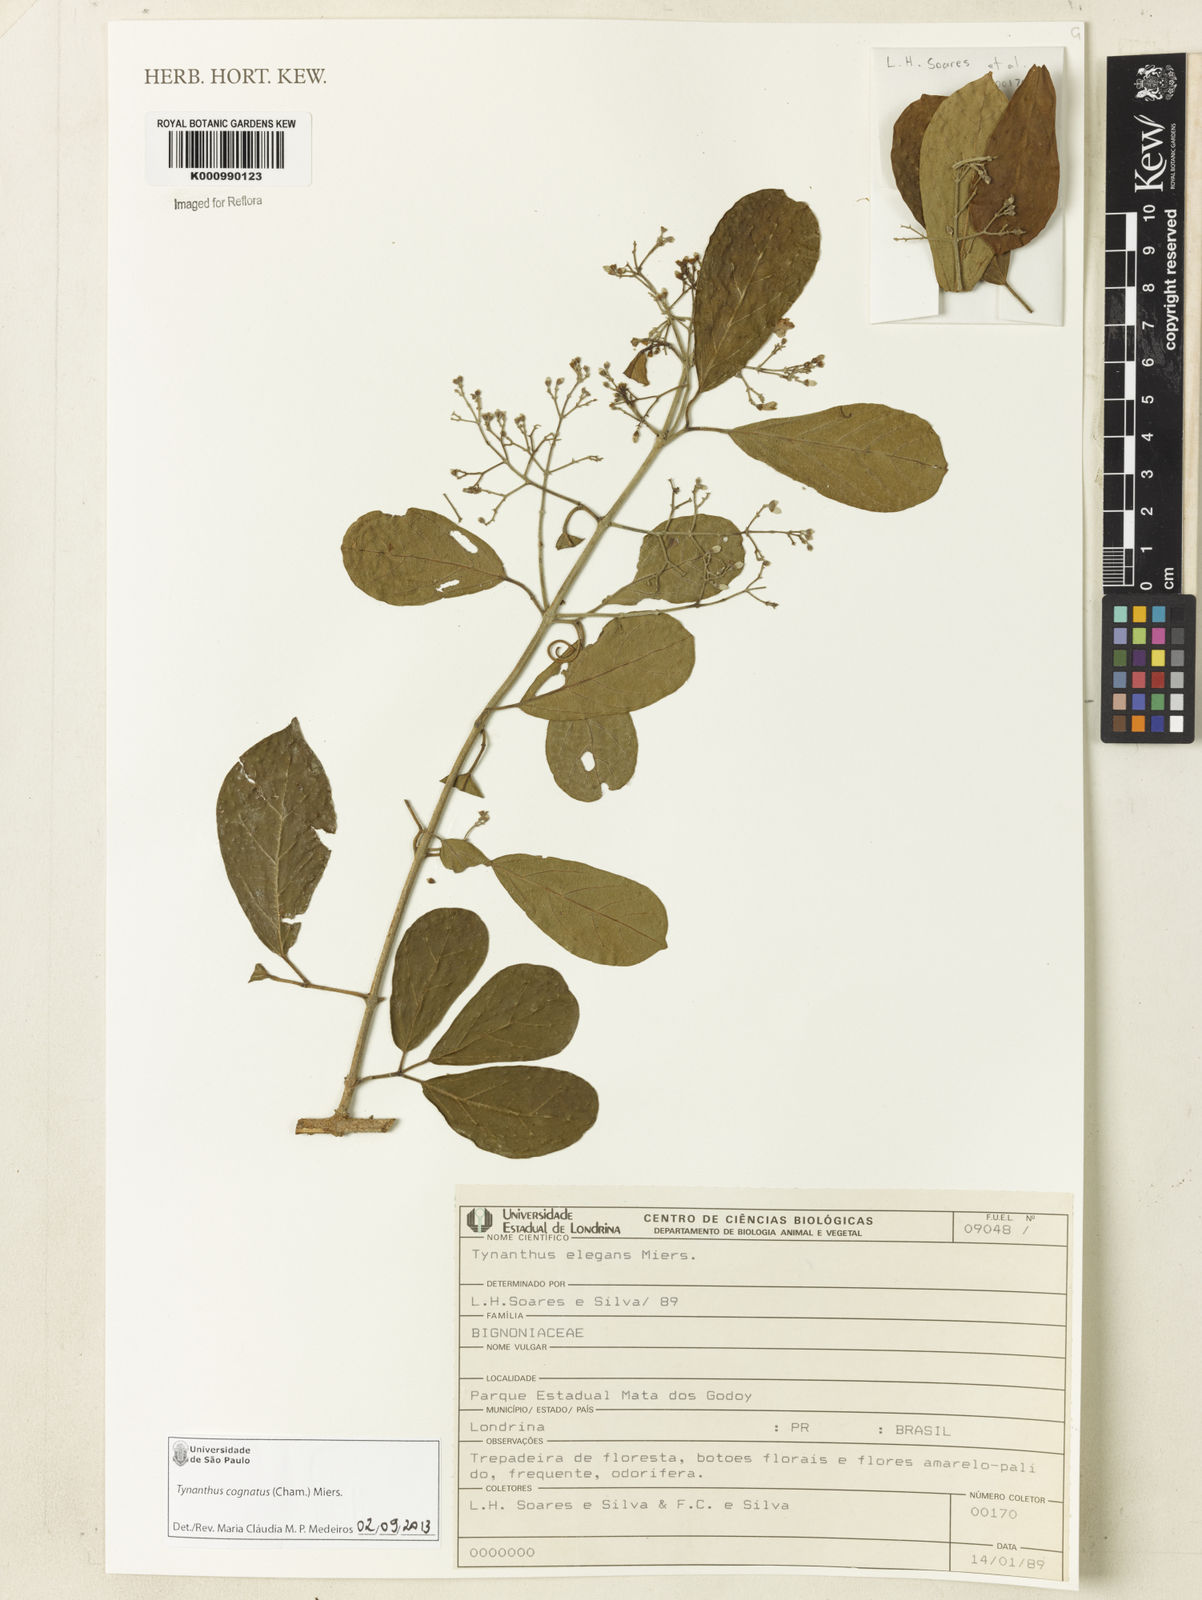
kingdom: Plantae
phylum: Tracheophyta
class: Magnoliopsida
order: Lamiales
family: Bignoniaceae
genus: Tynanthus
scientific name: Tynanthus cognatus
